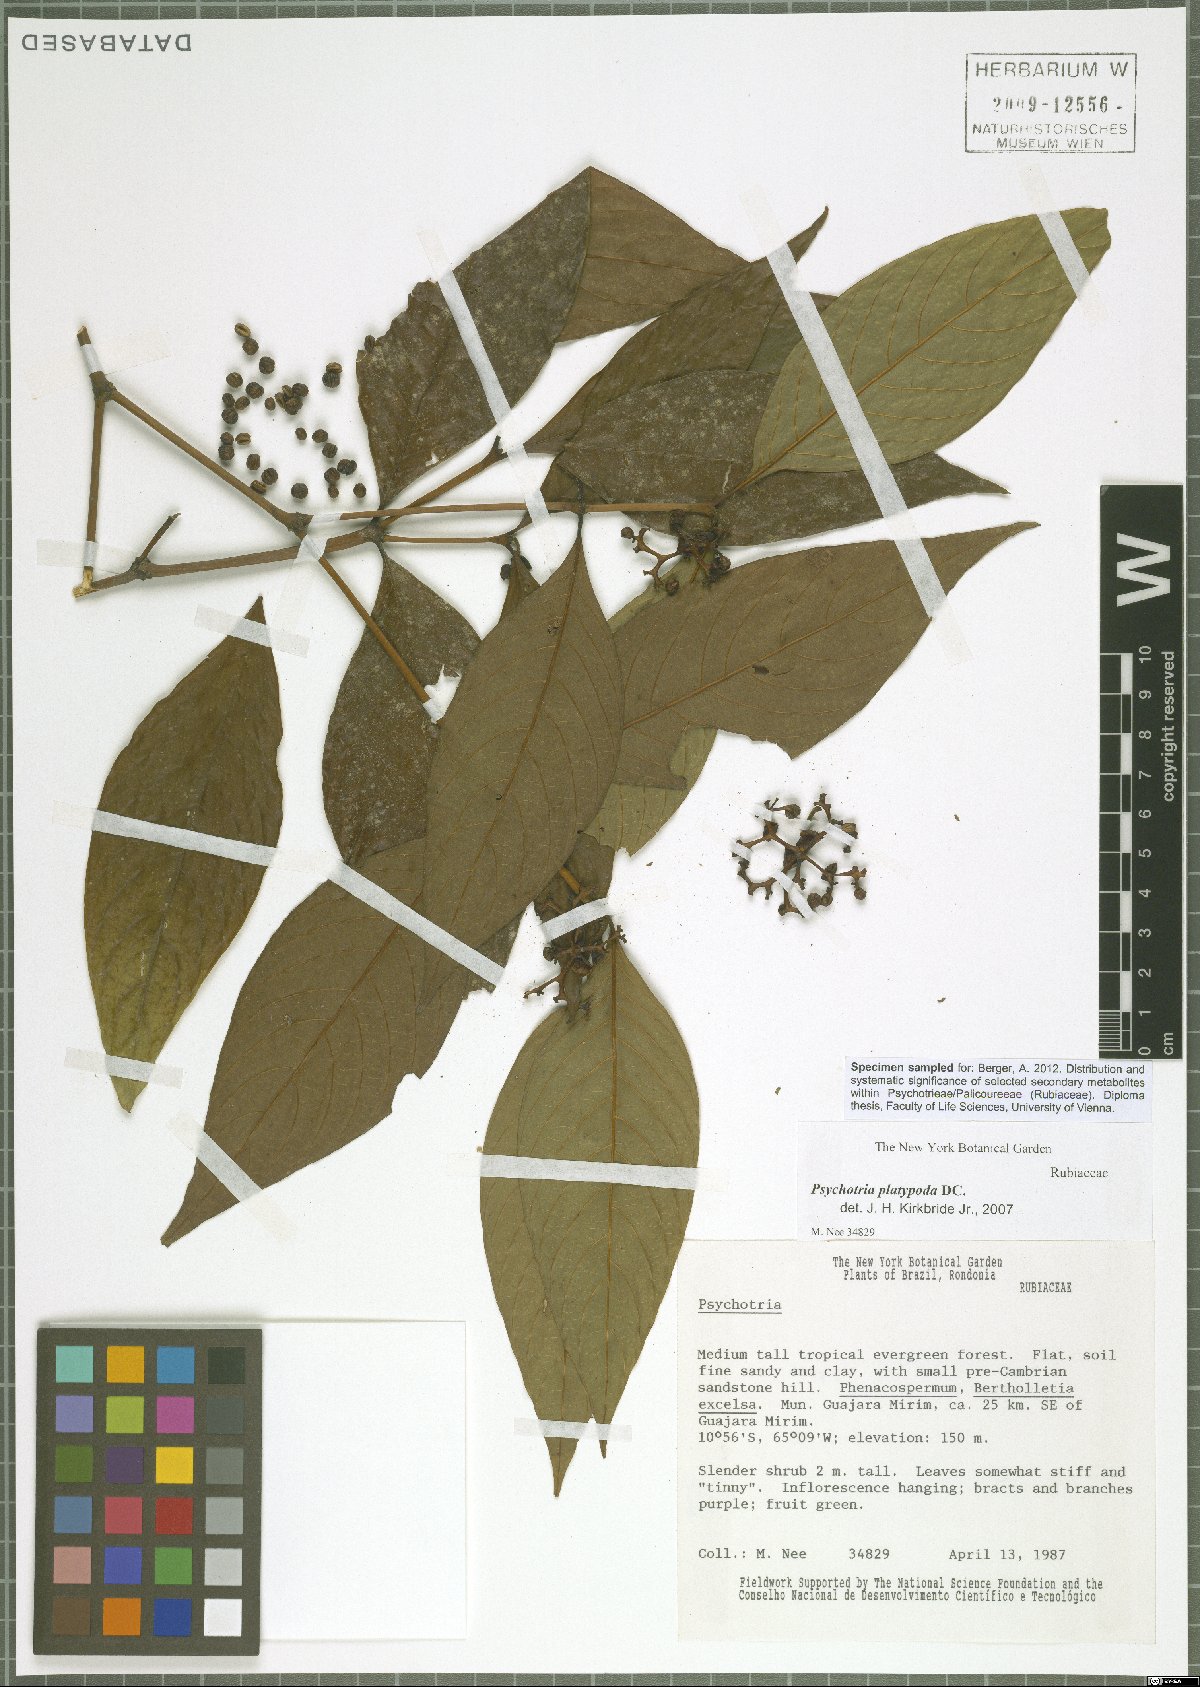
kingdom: Plantae
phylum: Tracheophyta
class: Magnoliopsida
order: Gentianales
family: Rubiaceae
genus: Palicourea
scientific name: Palicourea dichotoma
